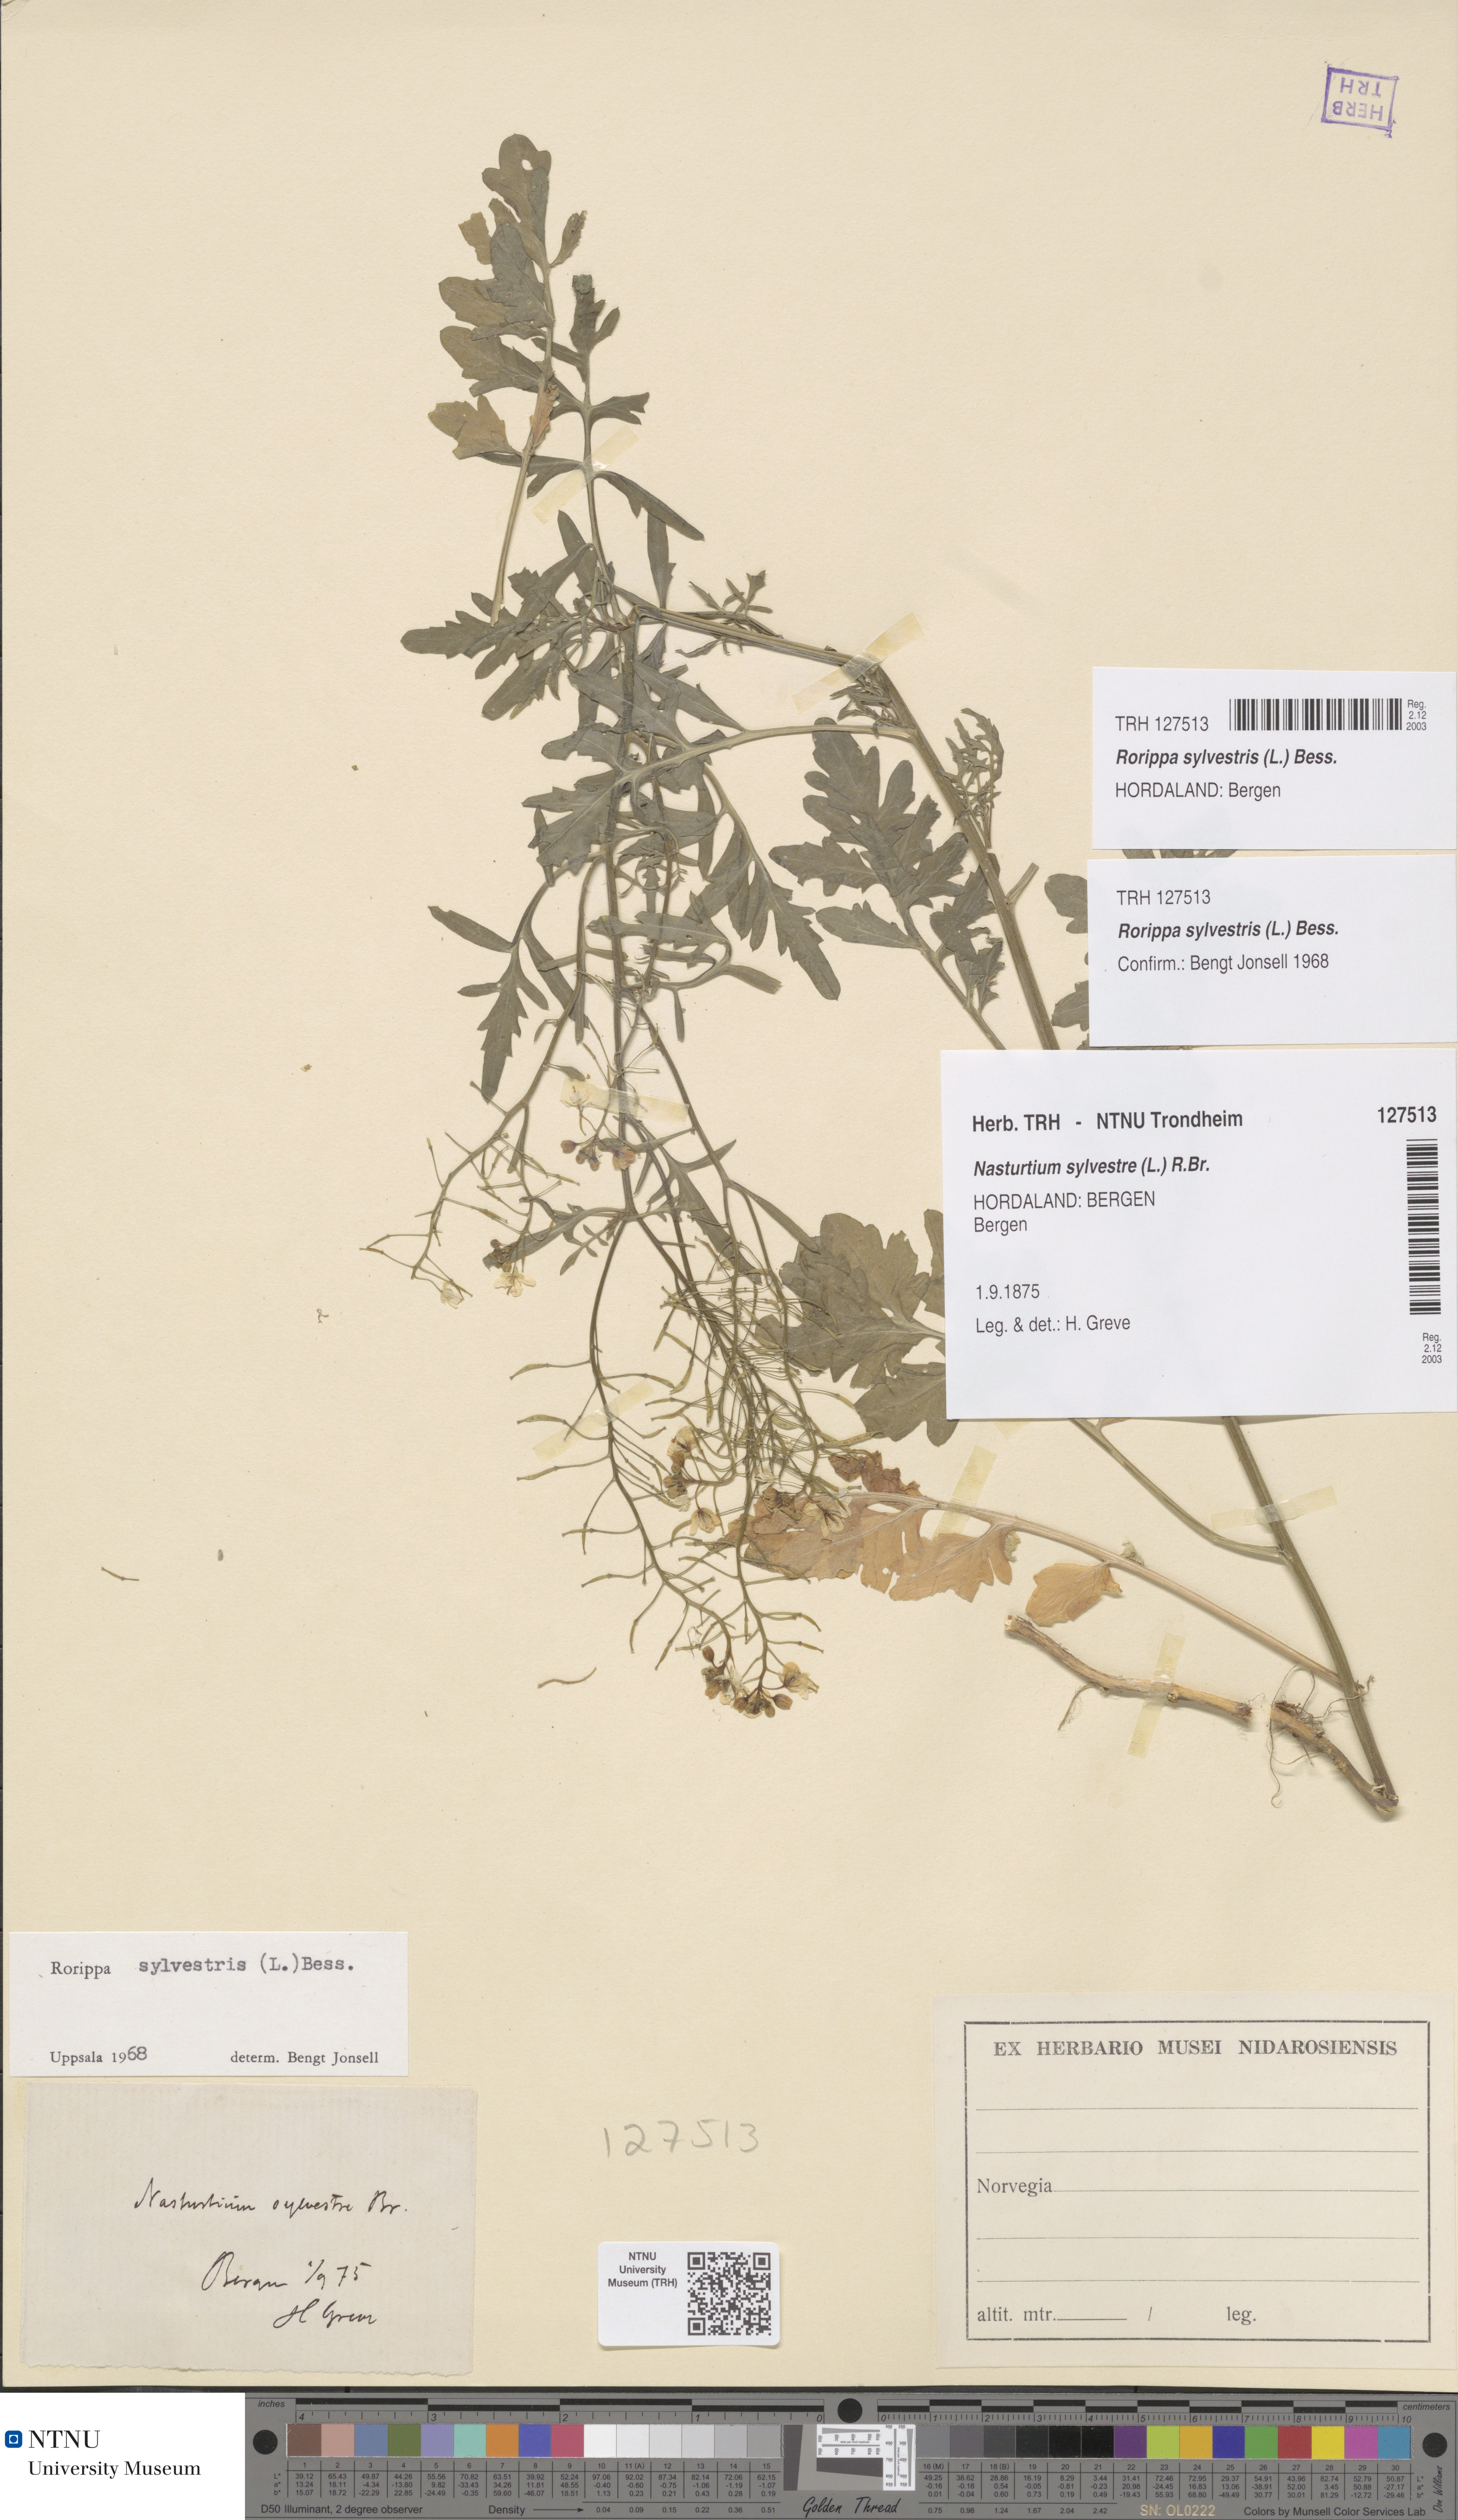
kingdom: Plantae
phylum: Tracheophyta
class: Magnoliopsida
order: Brassicales
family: Brassicaceae
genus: Rorippa
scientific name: Rorippa sylvestris
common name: Creeping yellowcress
